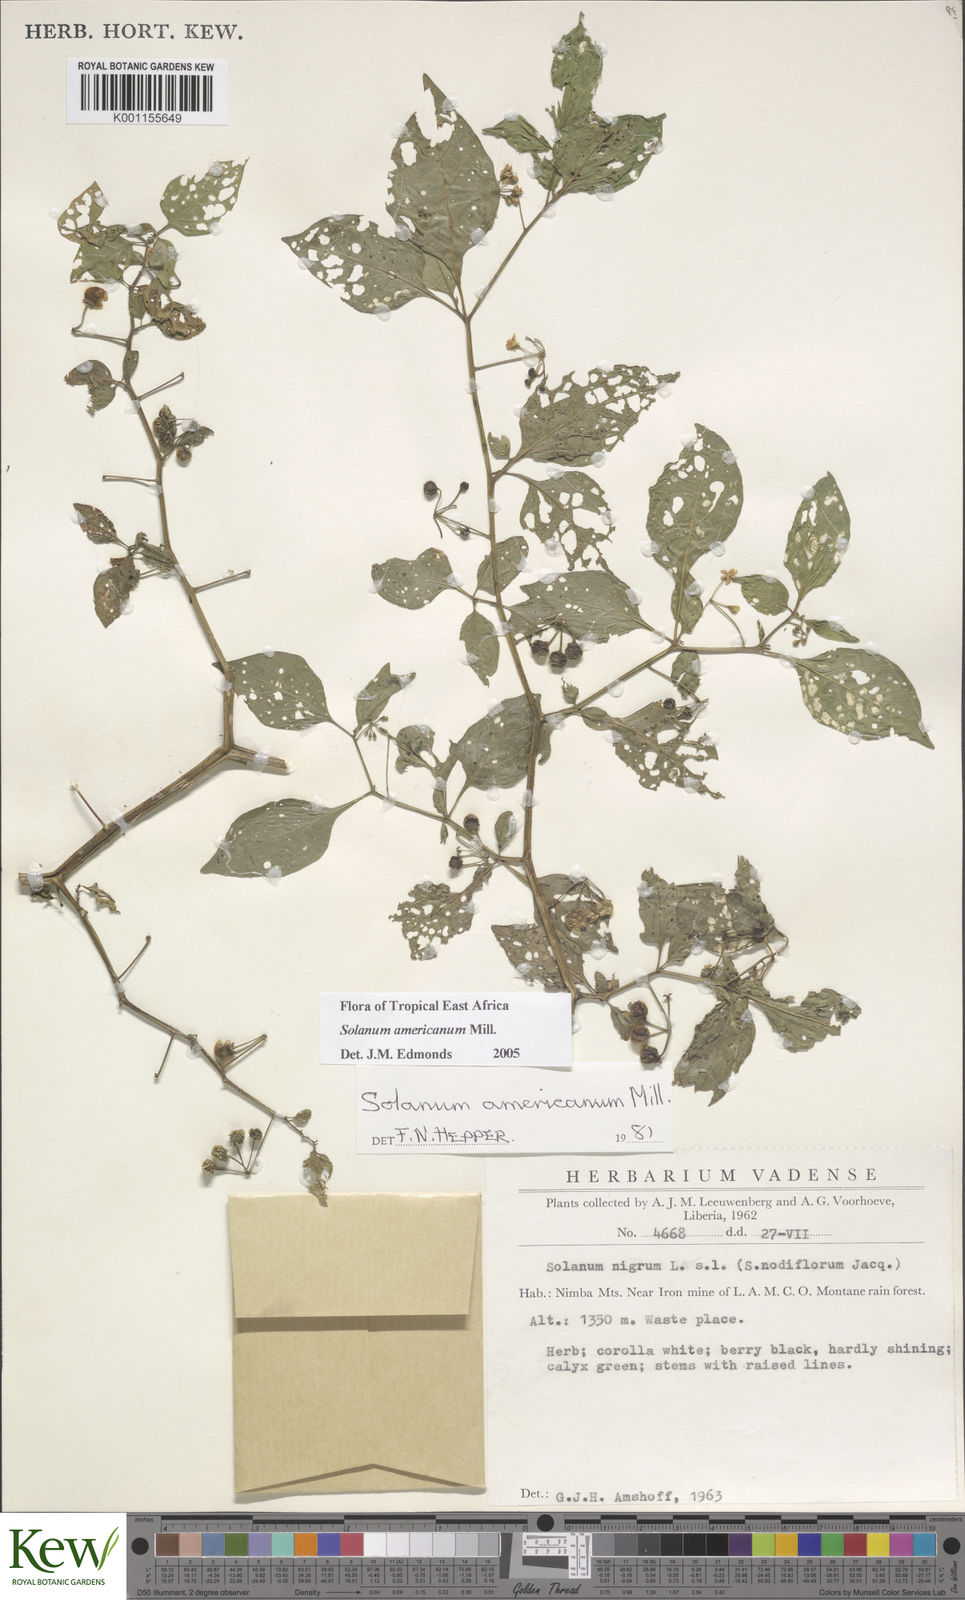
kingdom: Plantae
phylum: Tracheophyta
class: Magnoliopsida
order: Solanales
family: Solanaceae
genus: Solanum
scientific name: Solanum scabrum
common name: Garden-huckleberry
